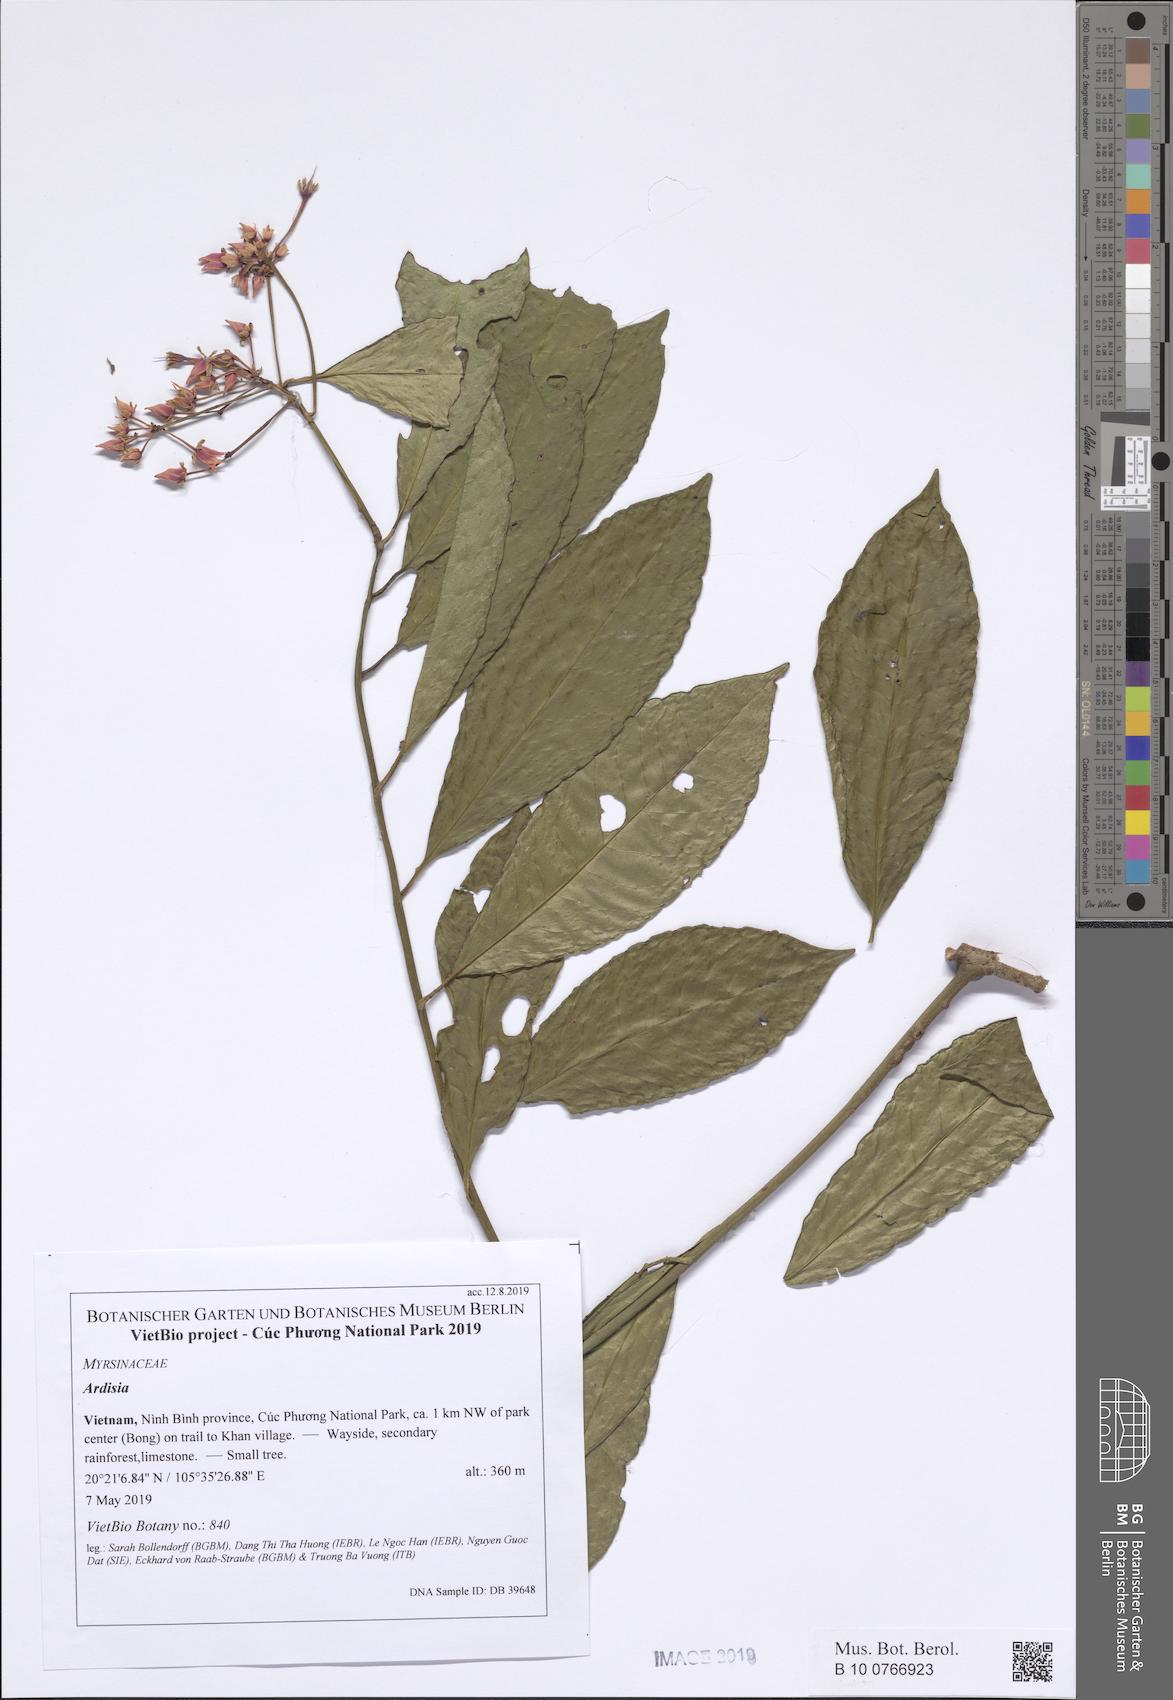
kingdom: Plantae
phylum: Tracheophyta
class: Magnoliopsida
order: Ericales
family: Primulaceae
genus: Ardisia
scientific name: Ardisia crenata
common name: Hen's eyes
